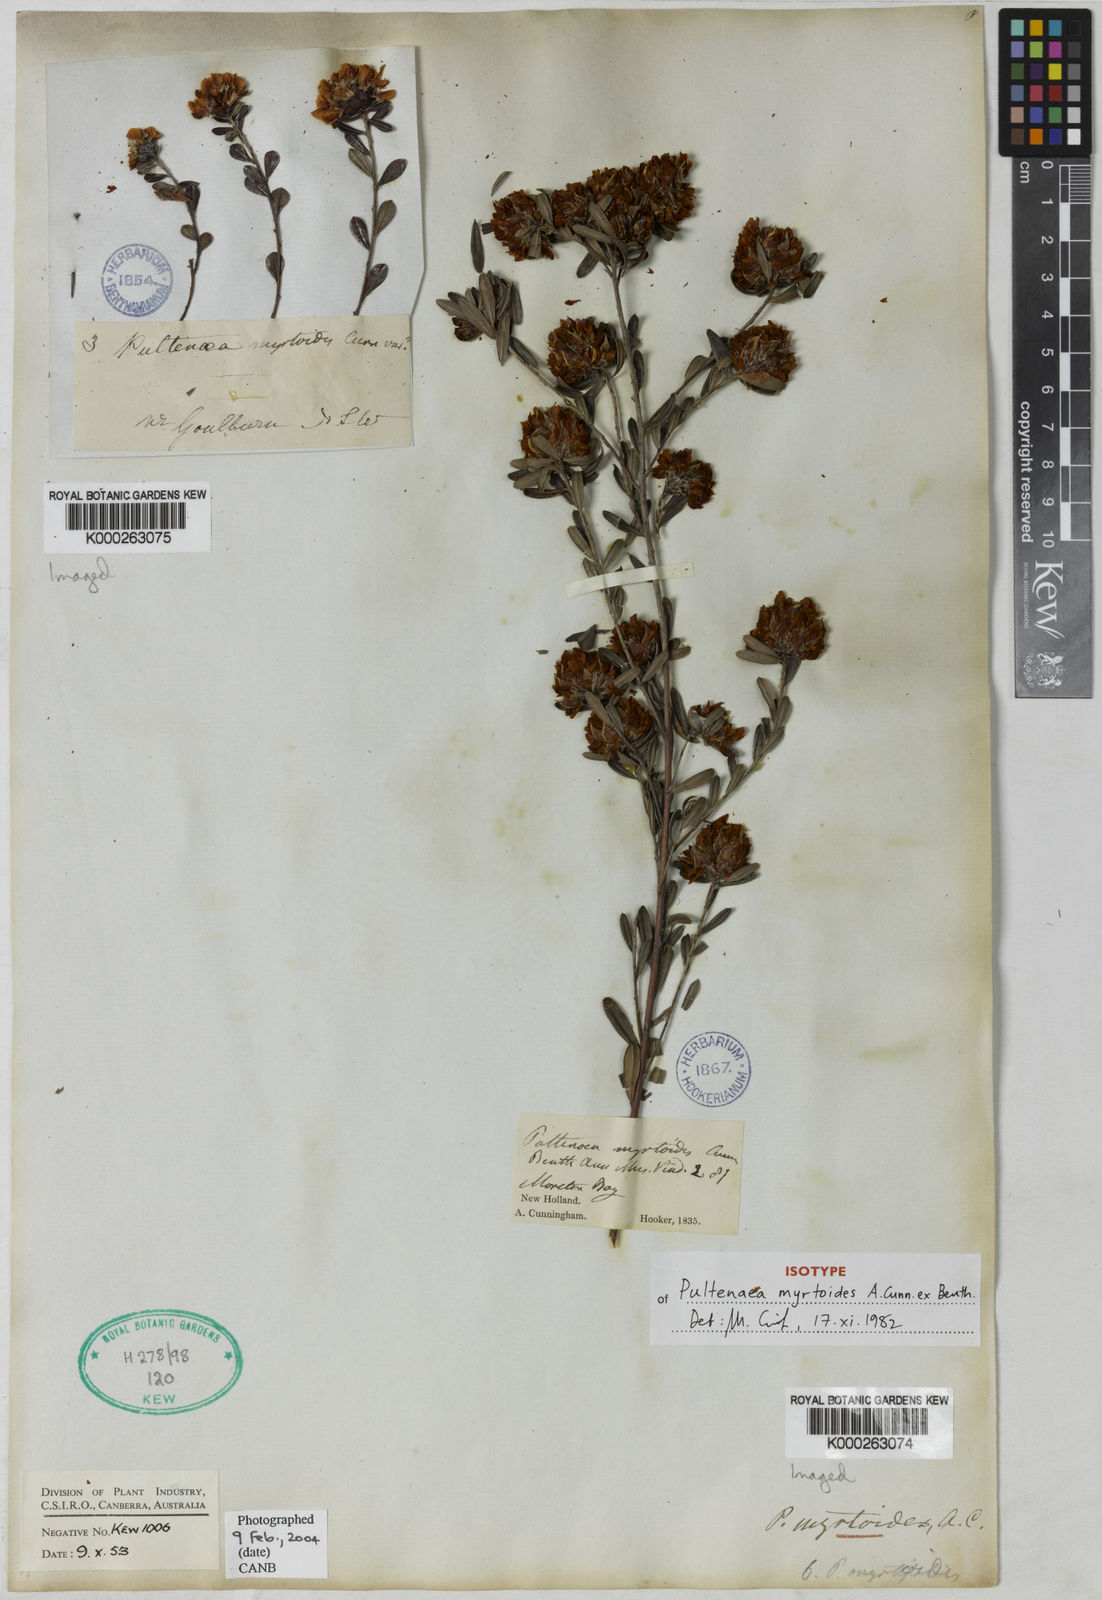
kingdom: Plantae
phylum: Tracheophyta
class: Magnoliopsida
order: Fabales
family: Fabaceae
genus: Pultenaea
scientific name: Pultenaea myrtoides
